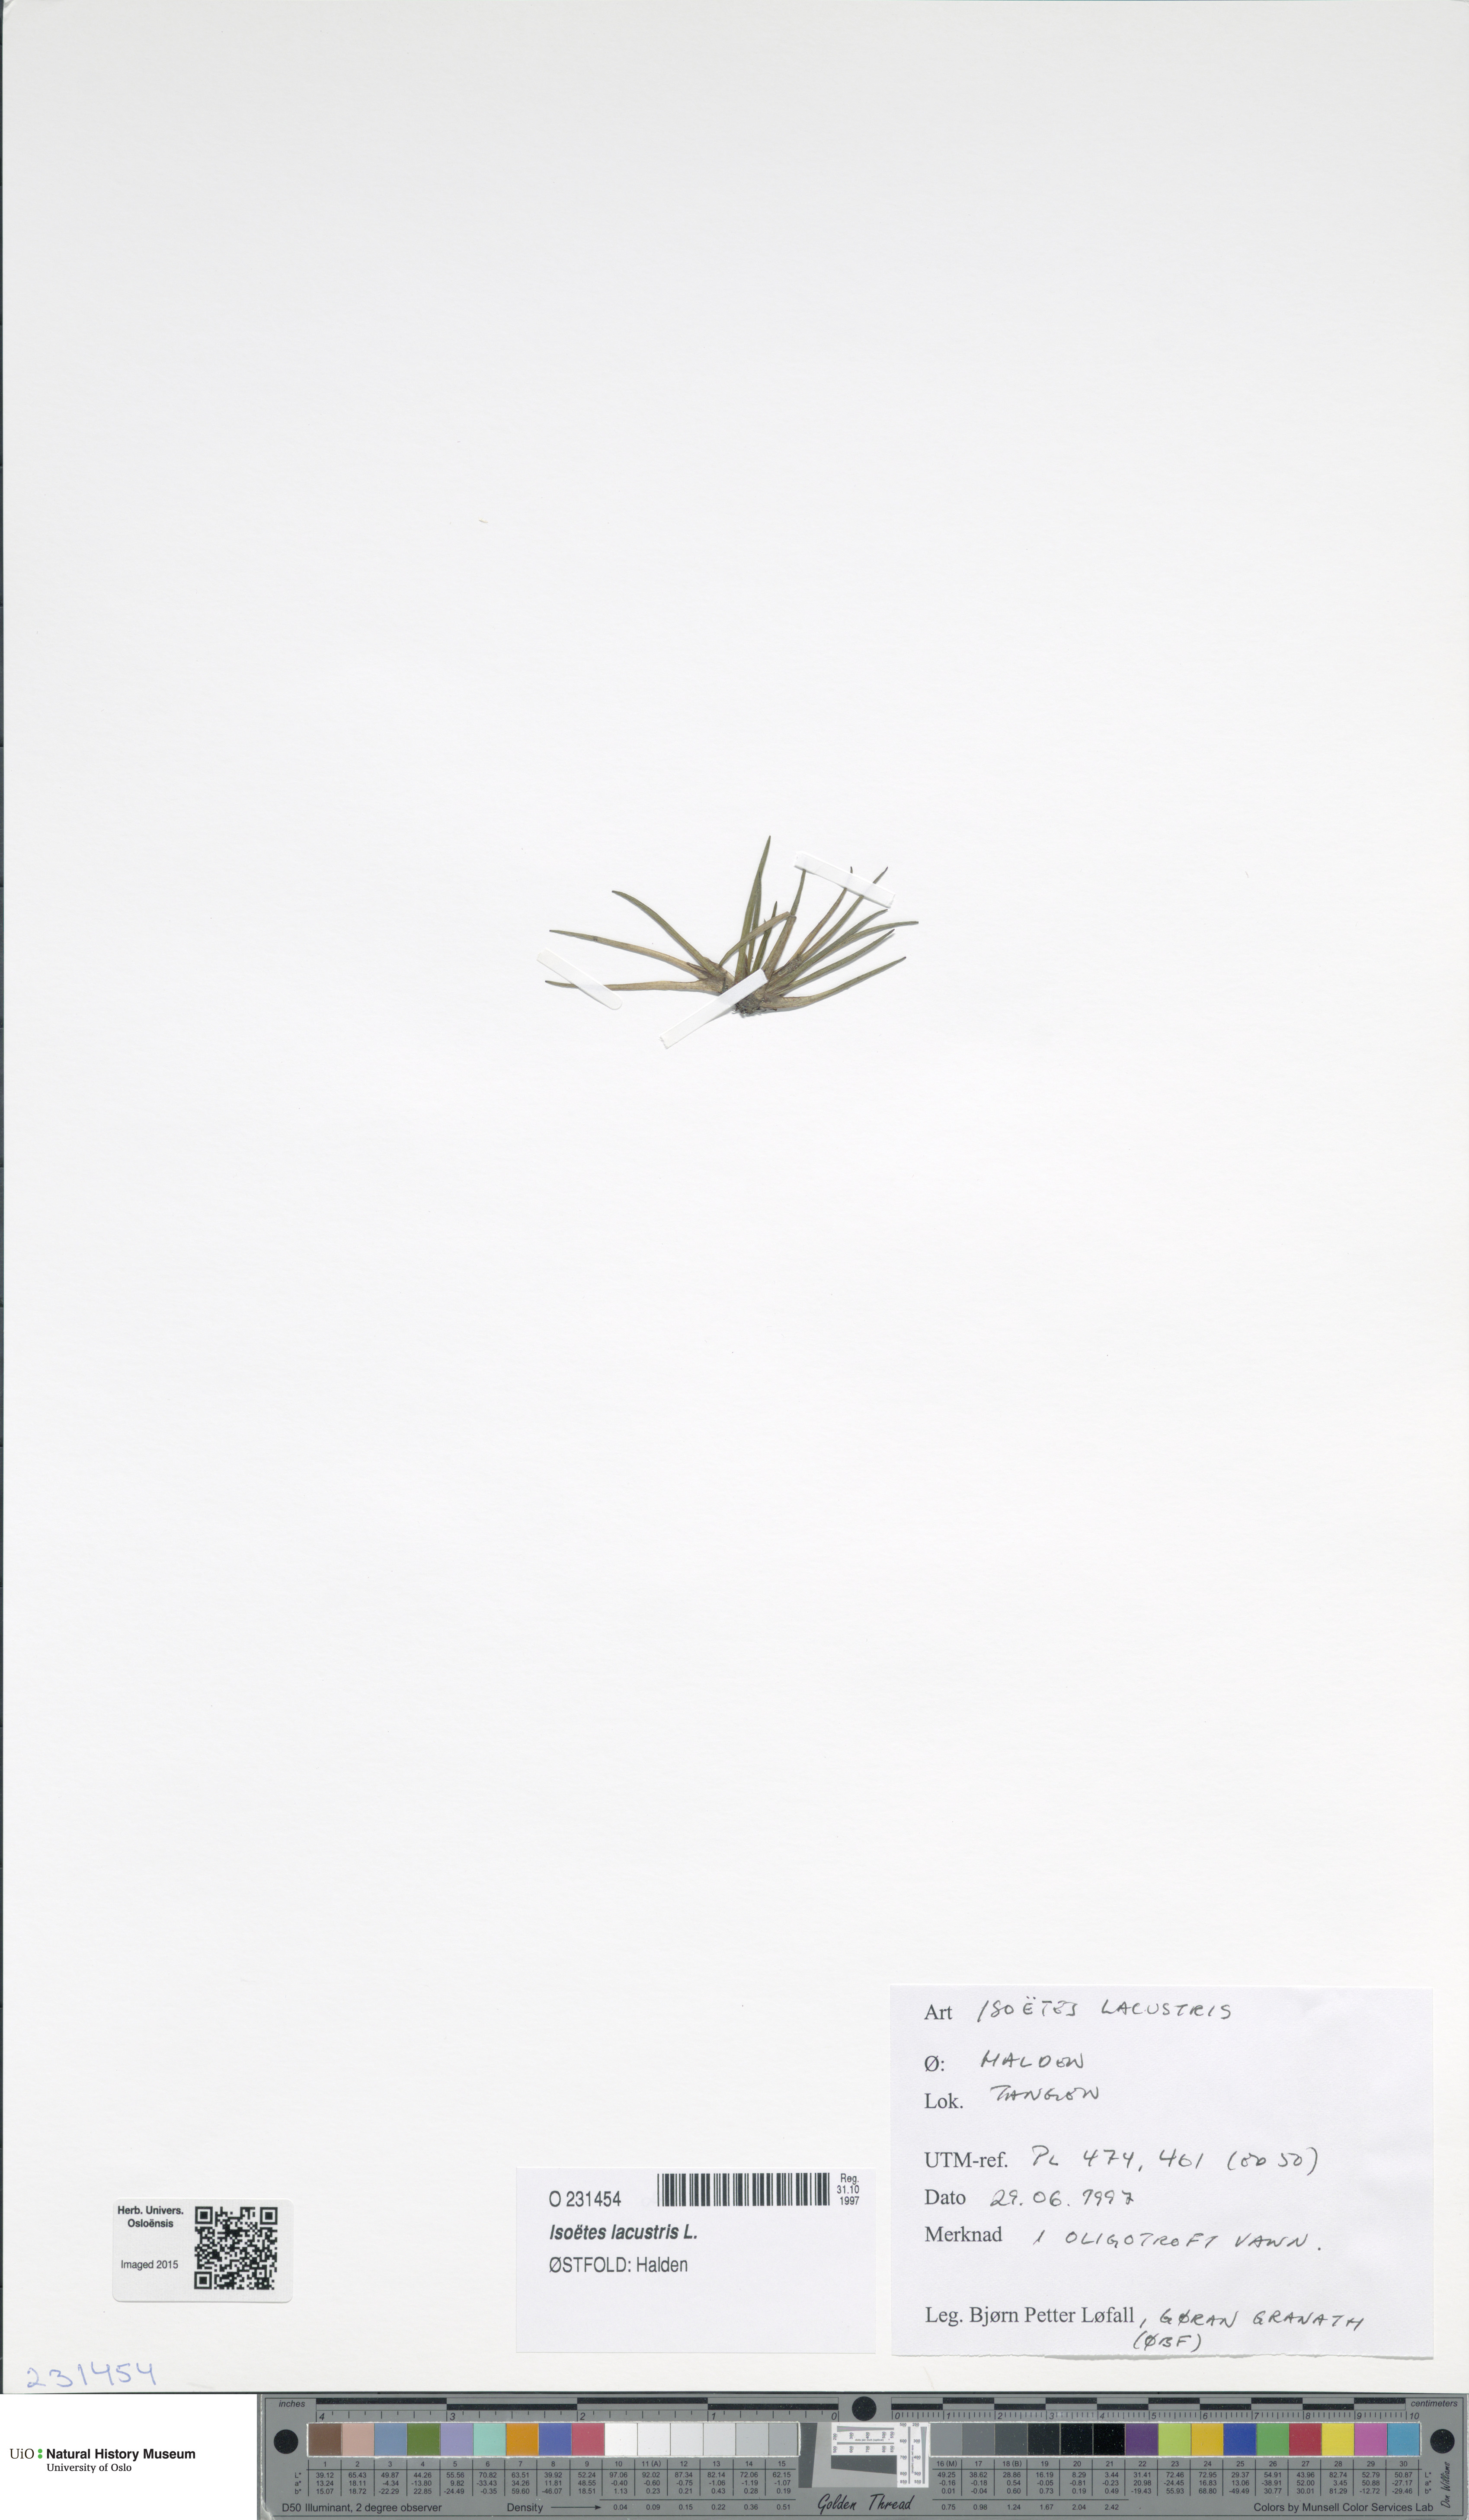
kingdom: Plantae
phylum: Tracheophyta
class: Lycopodiopsida
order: Isoetales
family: Isoetaceae
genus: Isoetes
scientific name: Isoetes lacustris
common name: Common quillwort
